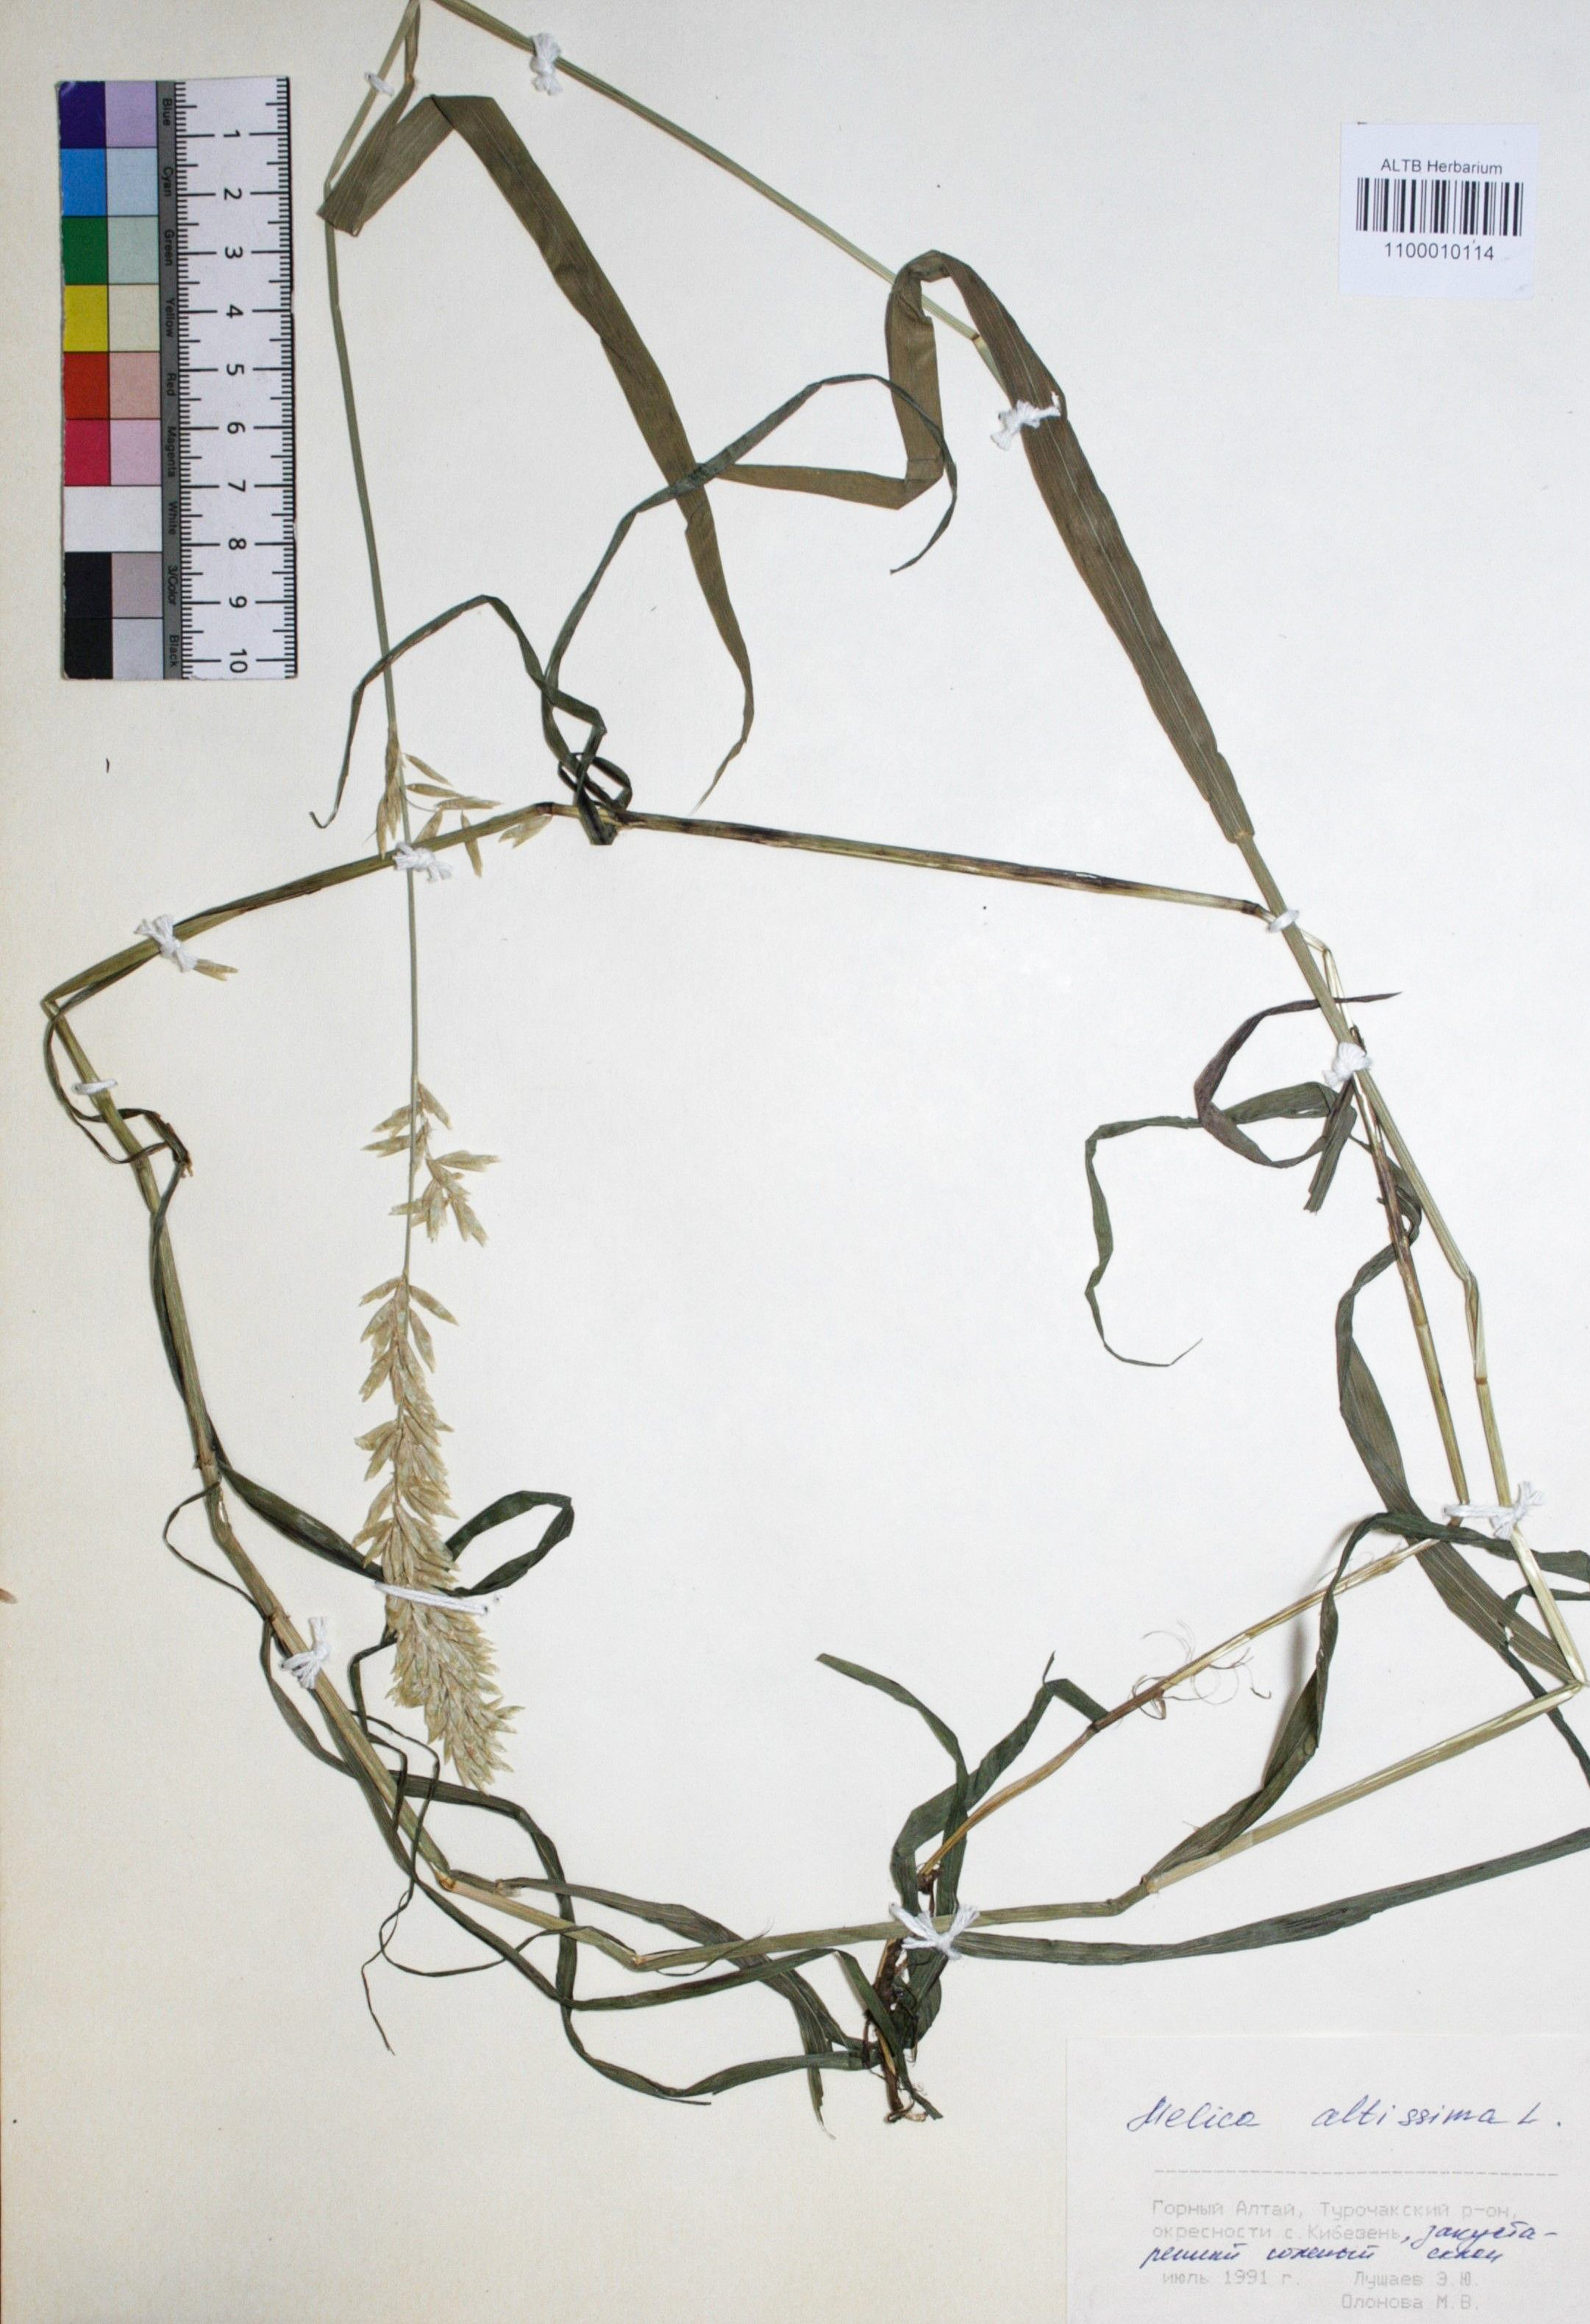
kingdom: Plantae
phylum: Tracheophyta
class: Liliopsida
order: Poales
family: Poaceae
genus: Melica
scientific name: Melica altissima
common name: Siberian melicgrass
